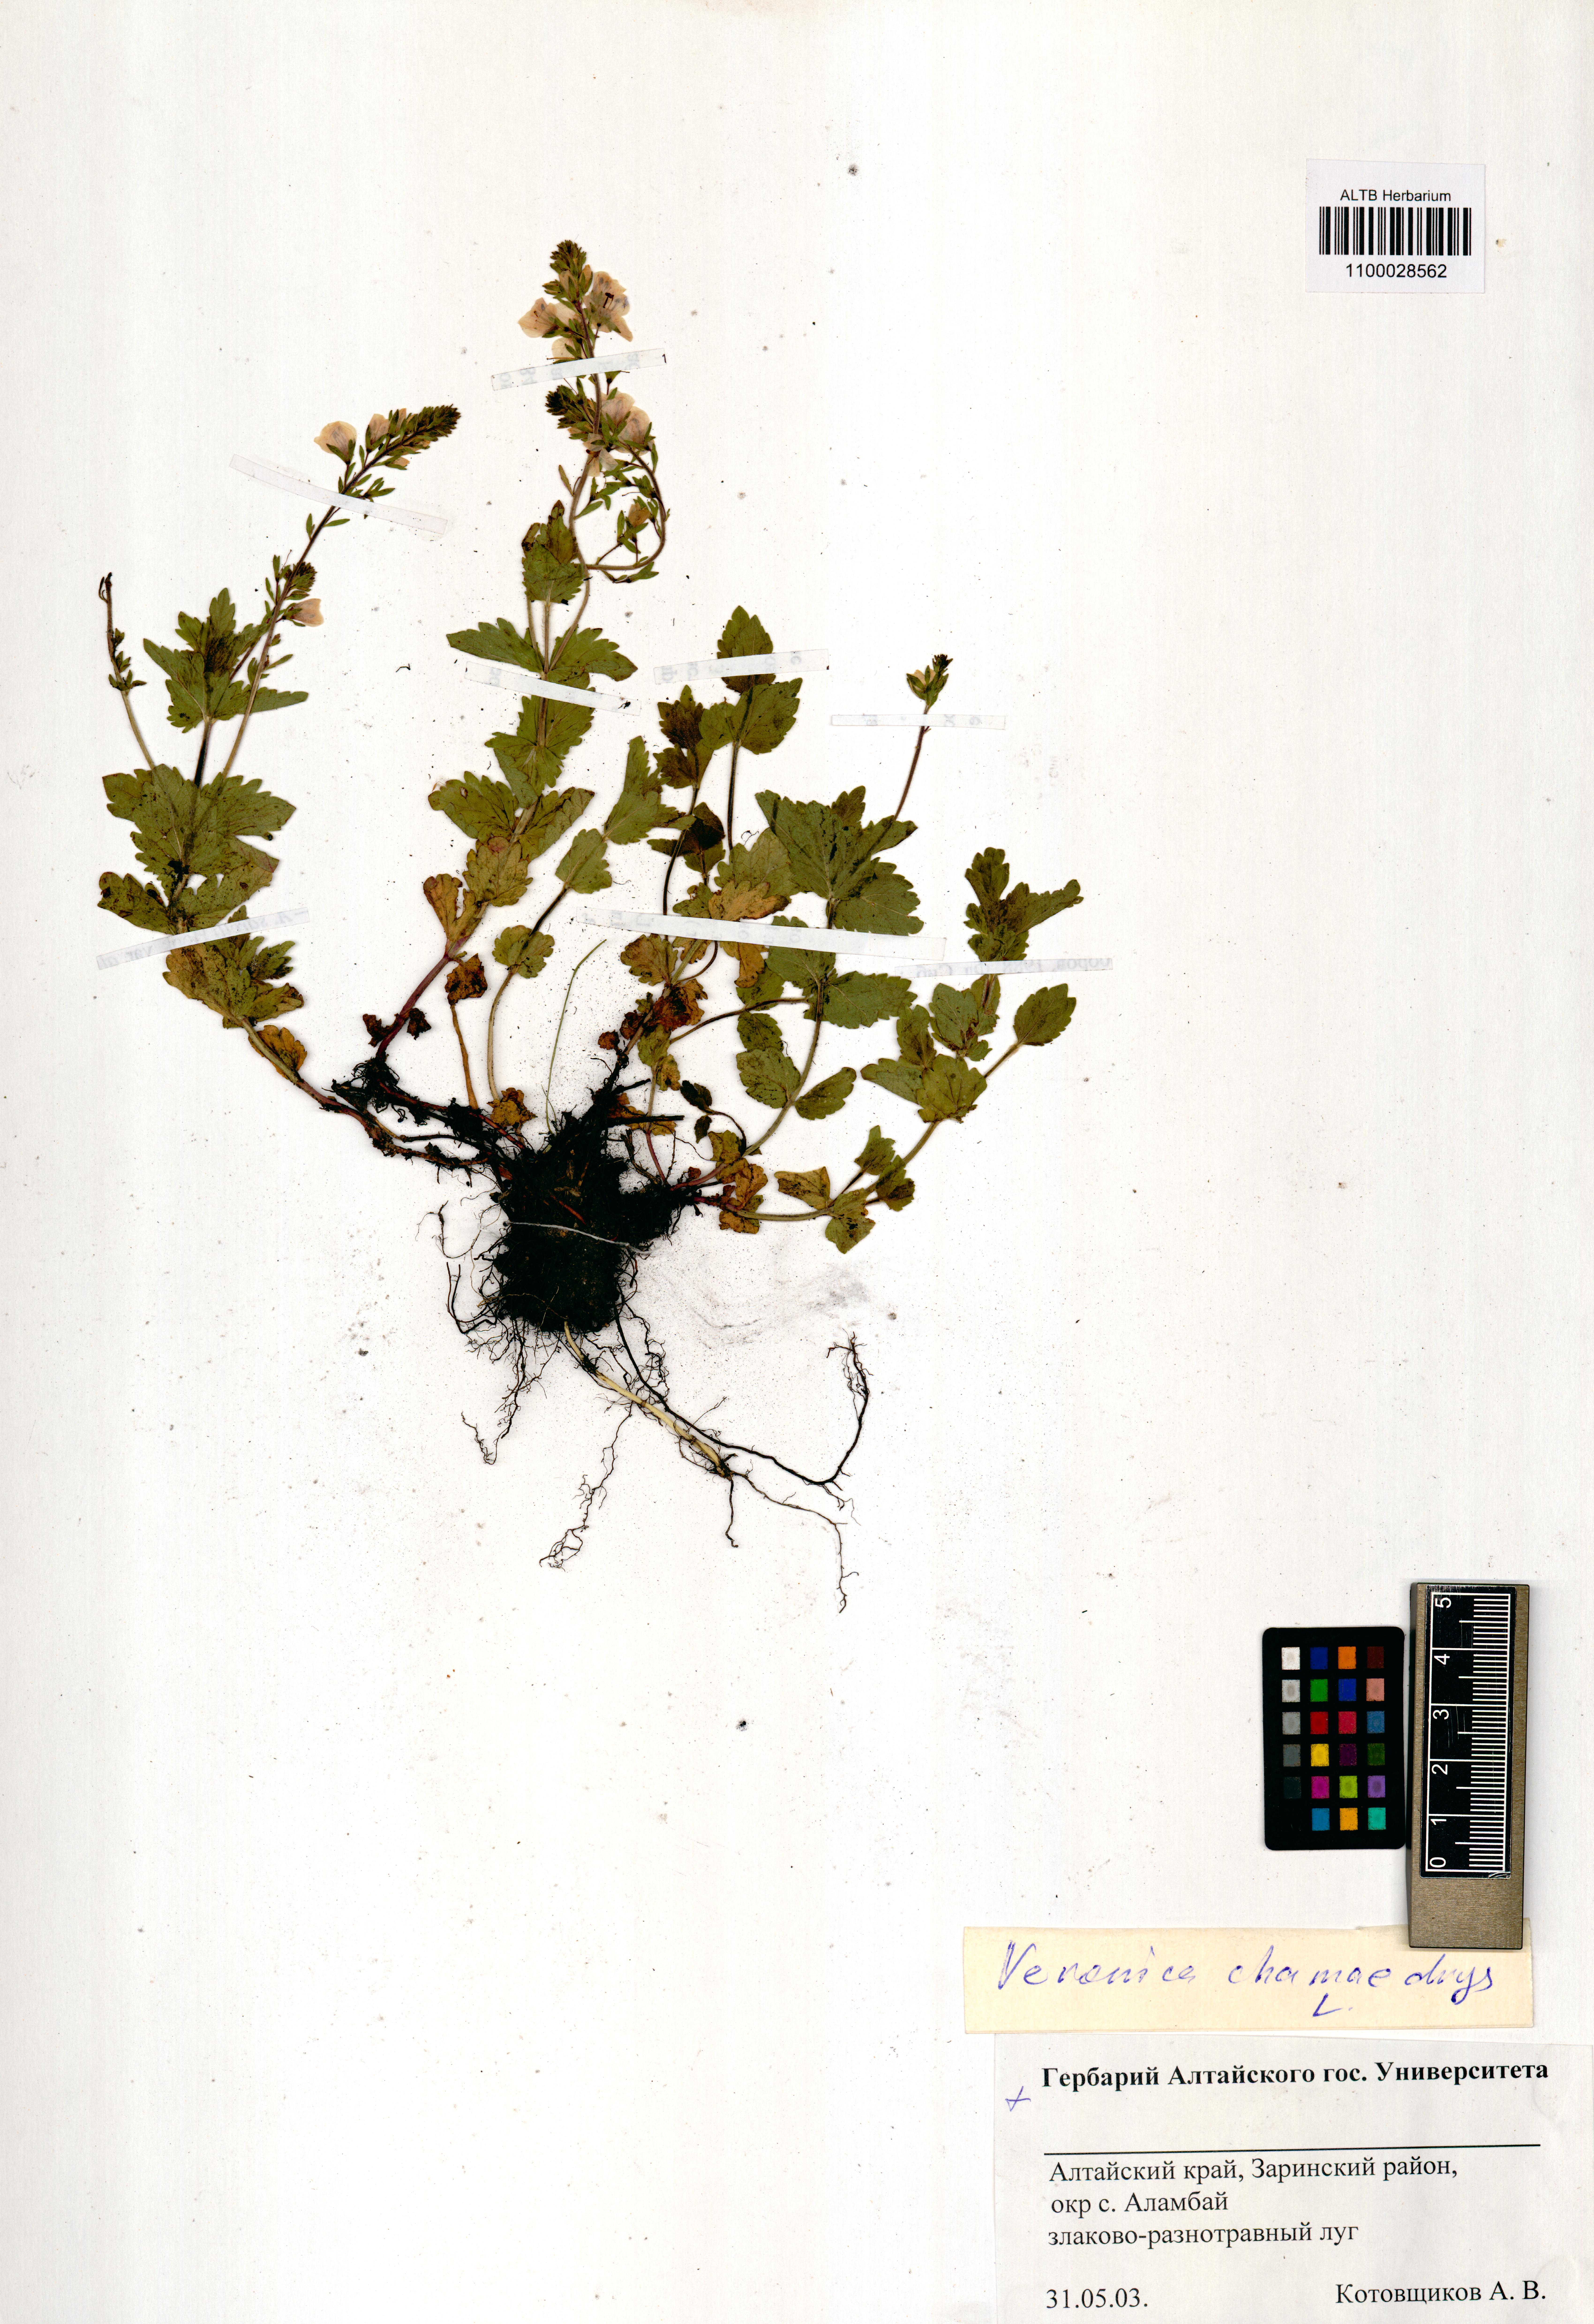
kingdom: Plantae
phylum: Tracheophyta
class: Magnoliopsida
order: Lamiales
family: Plantaginaceae
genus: Veronica
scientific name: Veronica chamaedrys
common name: Germander speedwell
